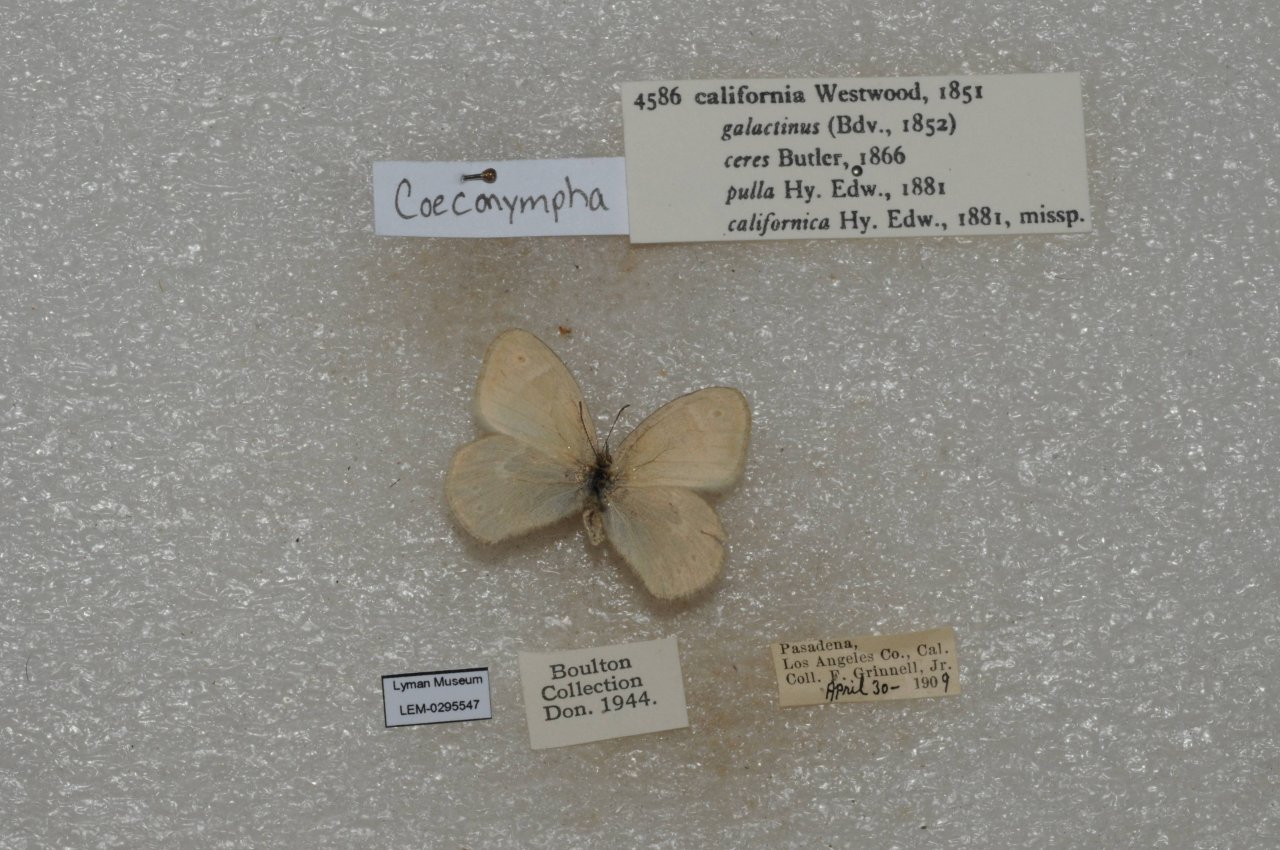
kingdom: Animalia
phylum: Arthropoda
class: Insecta
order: Lepidoptera
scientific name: Lepidoptera
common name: Butterflies
